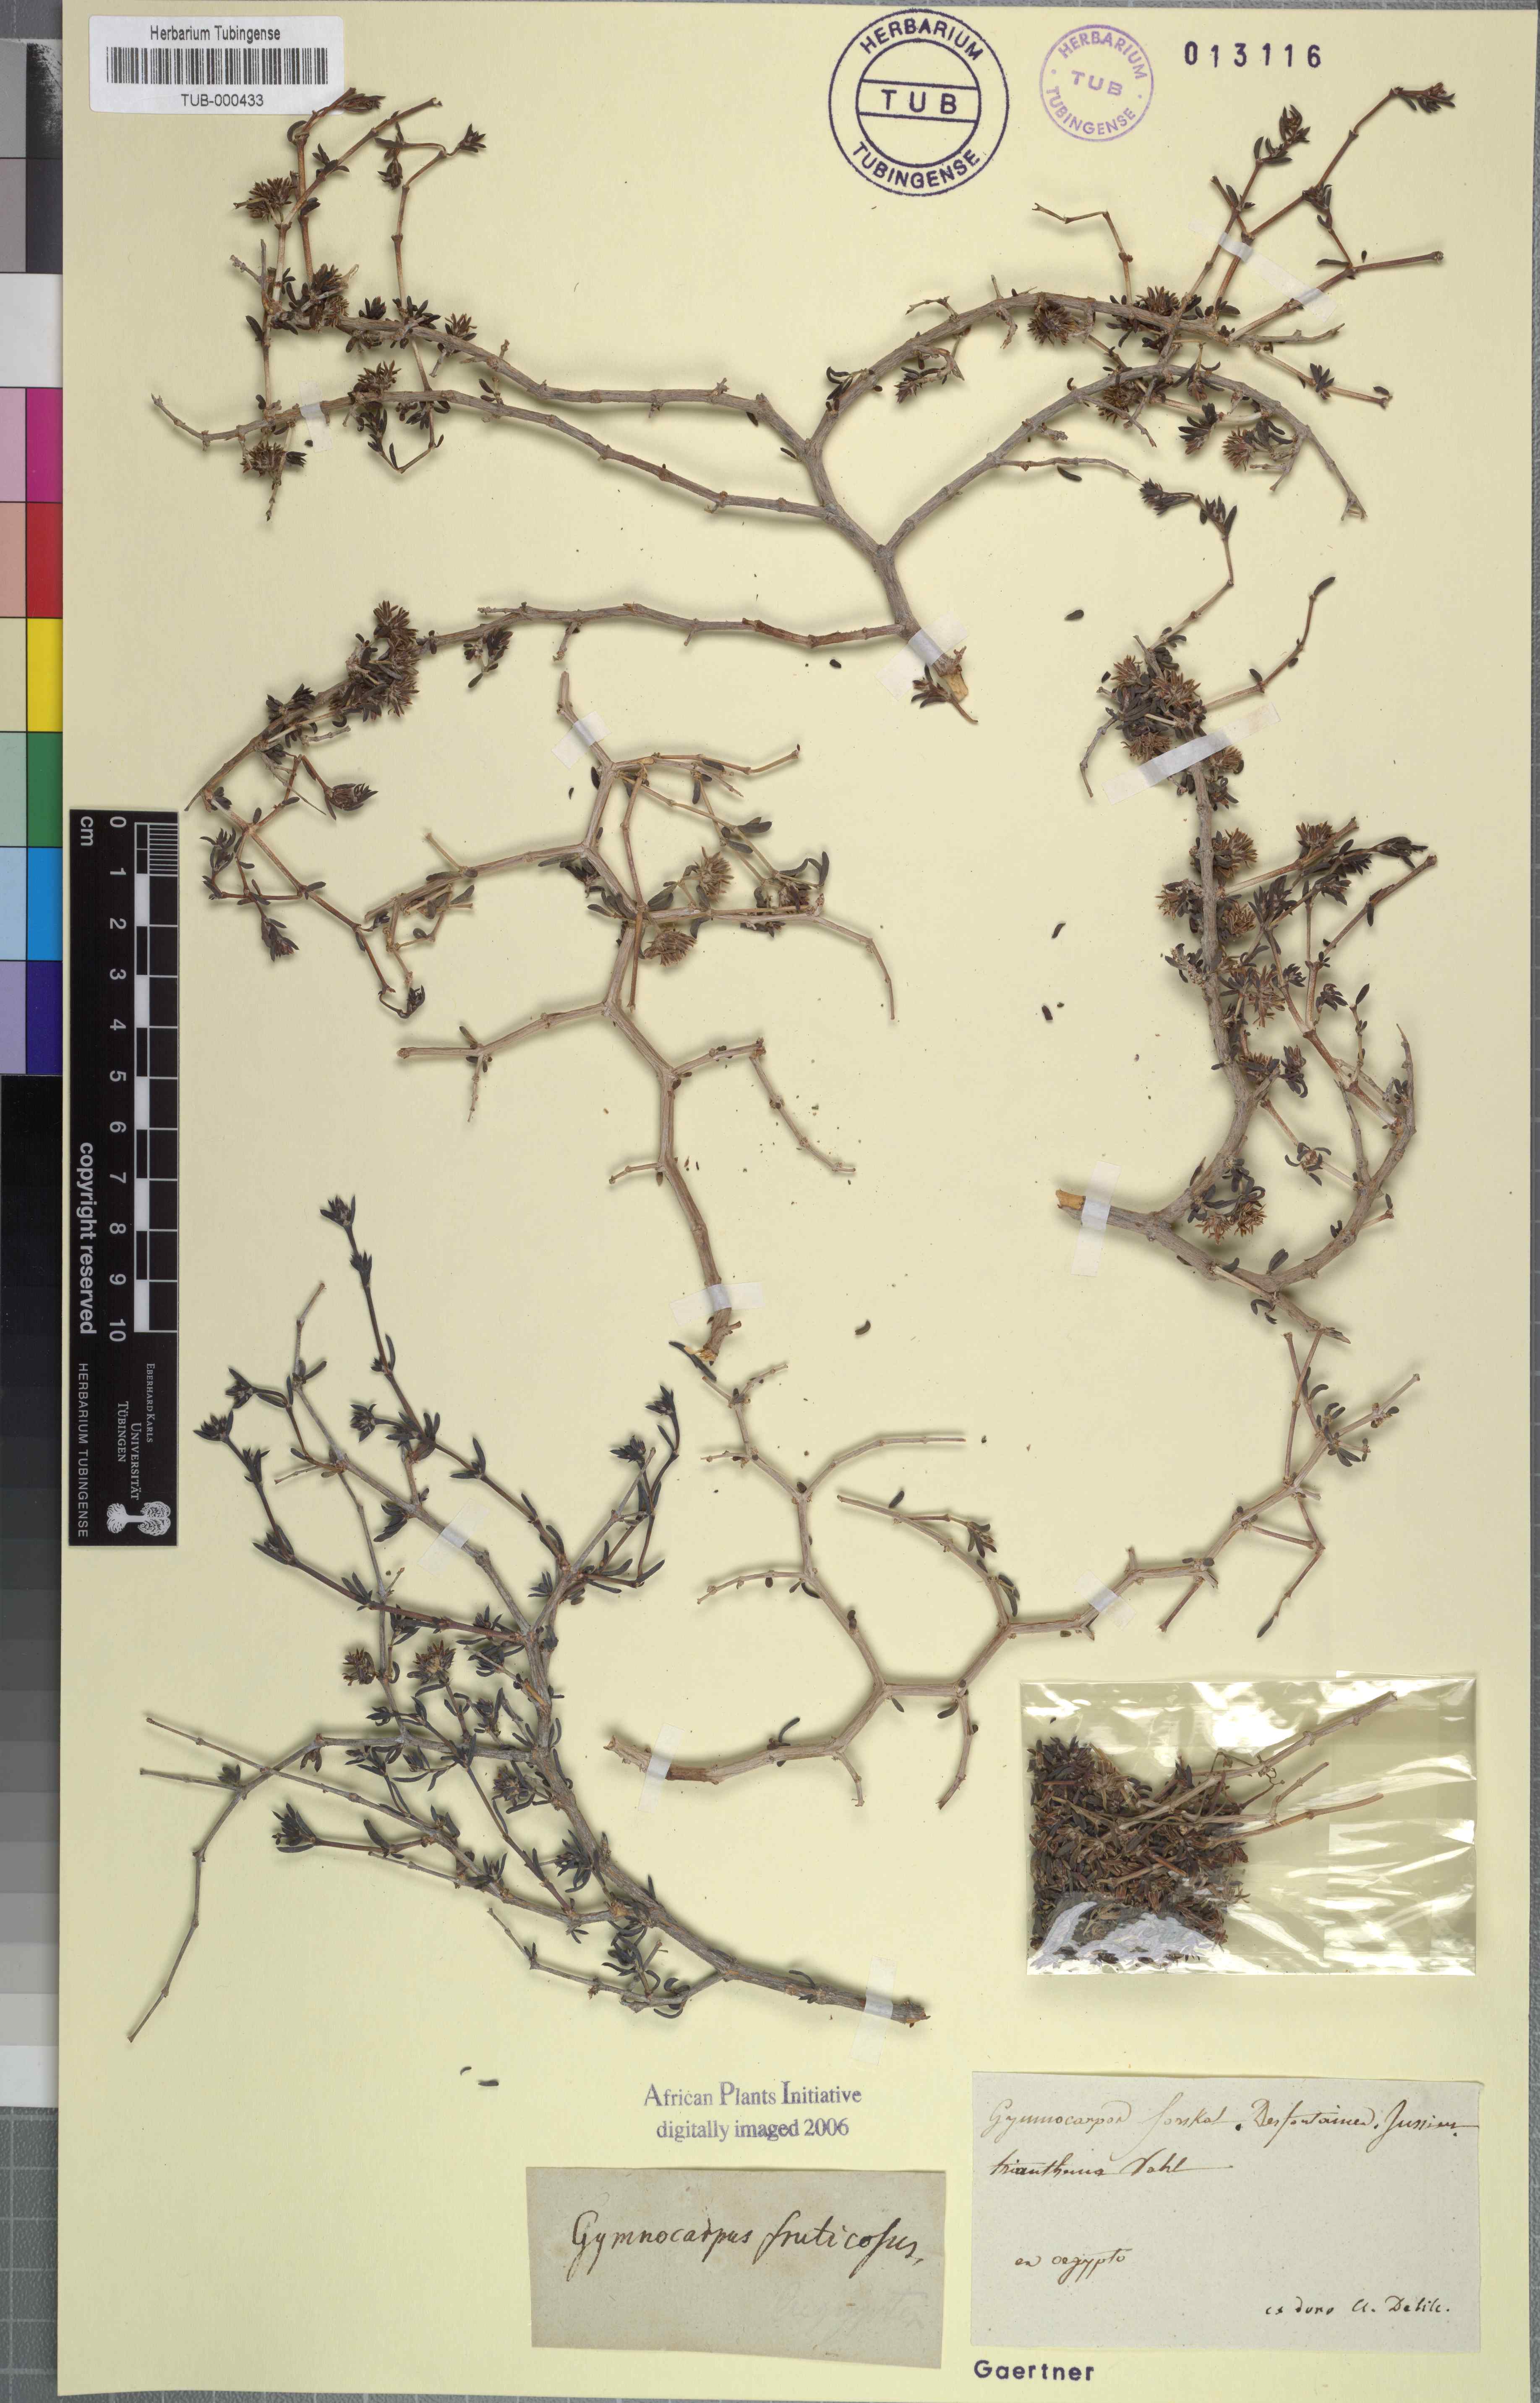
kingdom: Plantae
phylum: Tracheophyta
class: Magnoliopsida
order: Caryophyllales
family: Caryophyllaceae
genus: Gymnocarpos
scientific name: Gymnocarpos decander
